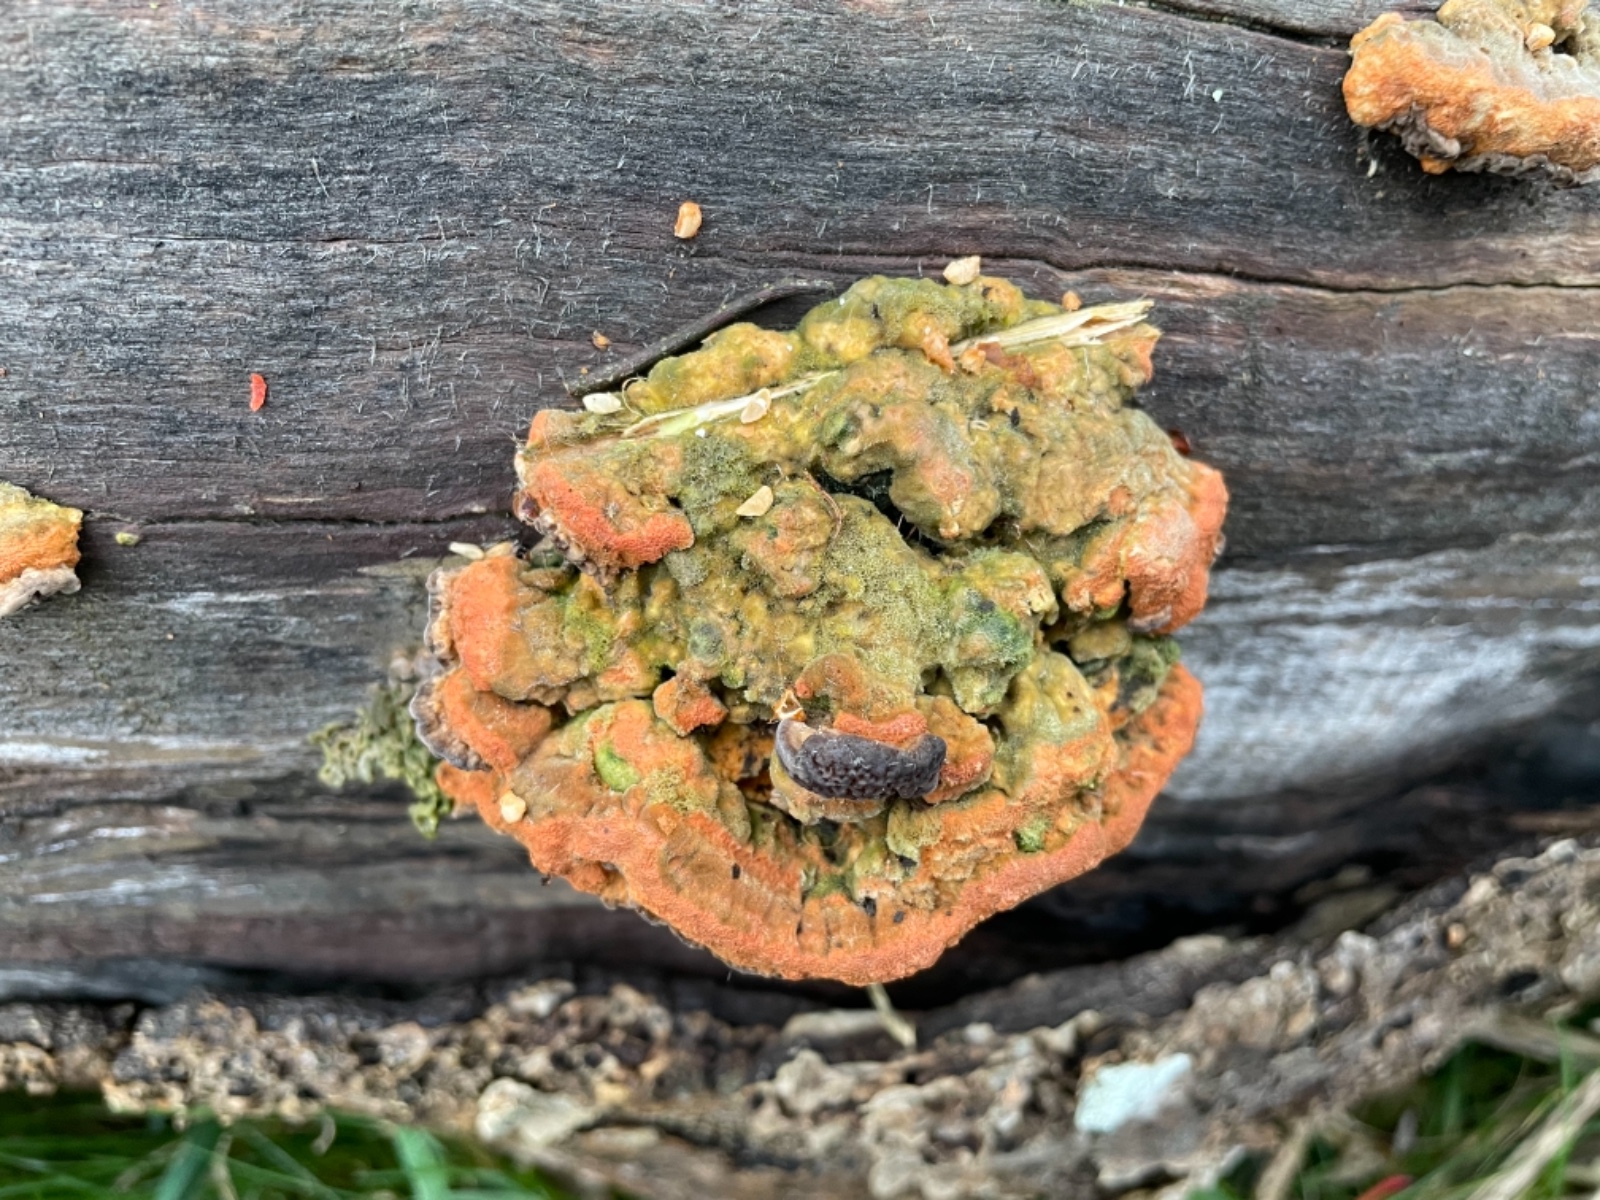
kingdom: Fungi
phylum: Basidiomycota
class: Agaricomycetes
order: Polyporales
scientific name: Polyporales
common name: poresvampordenen
